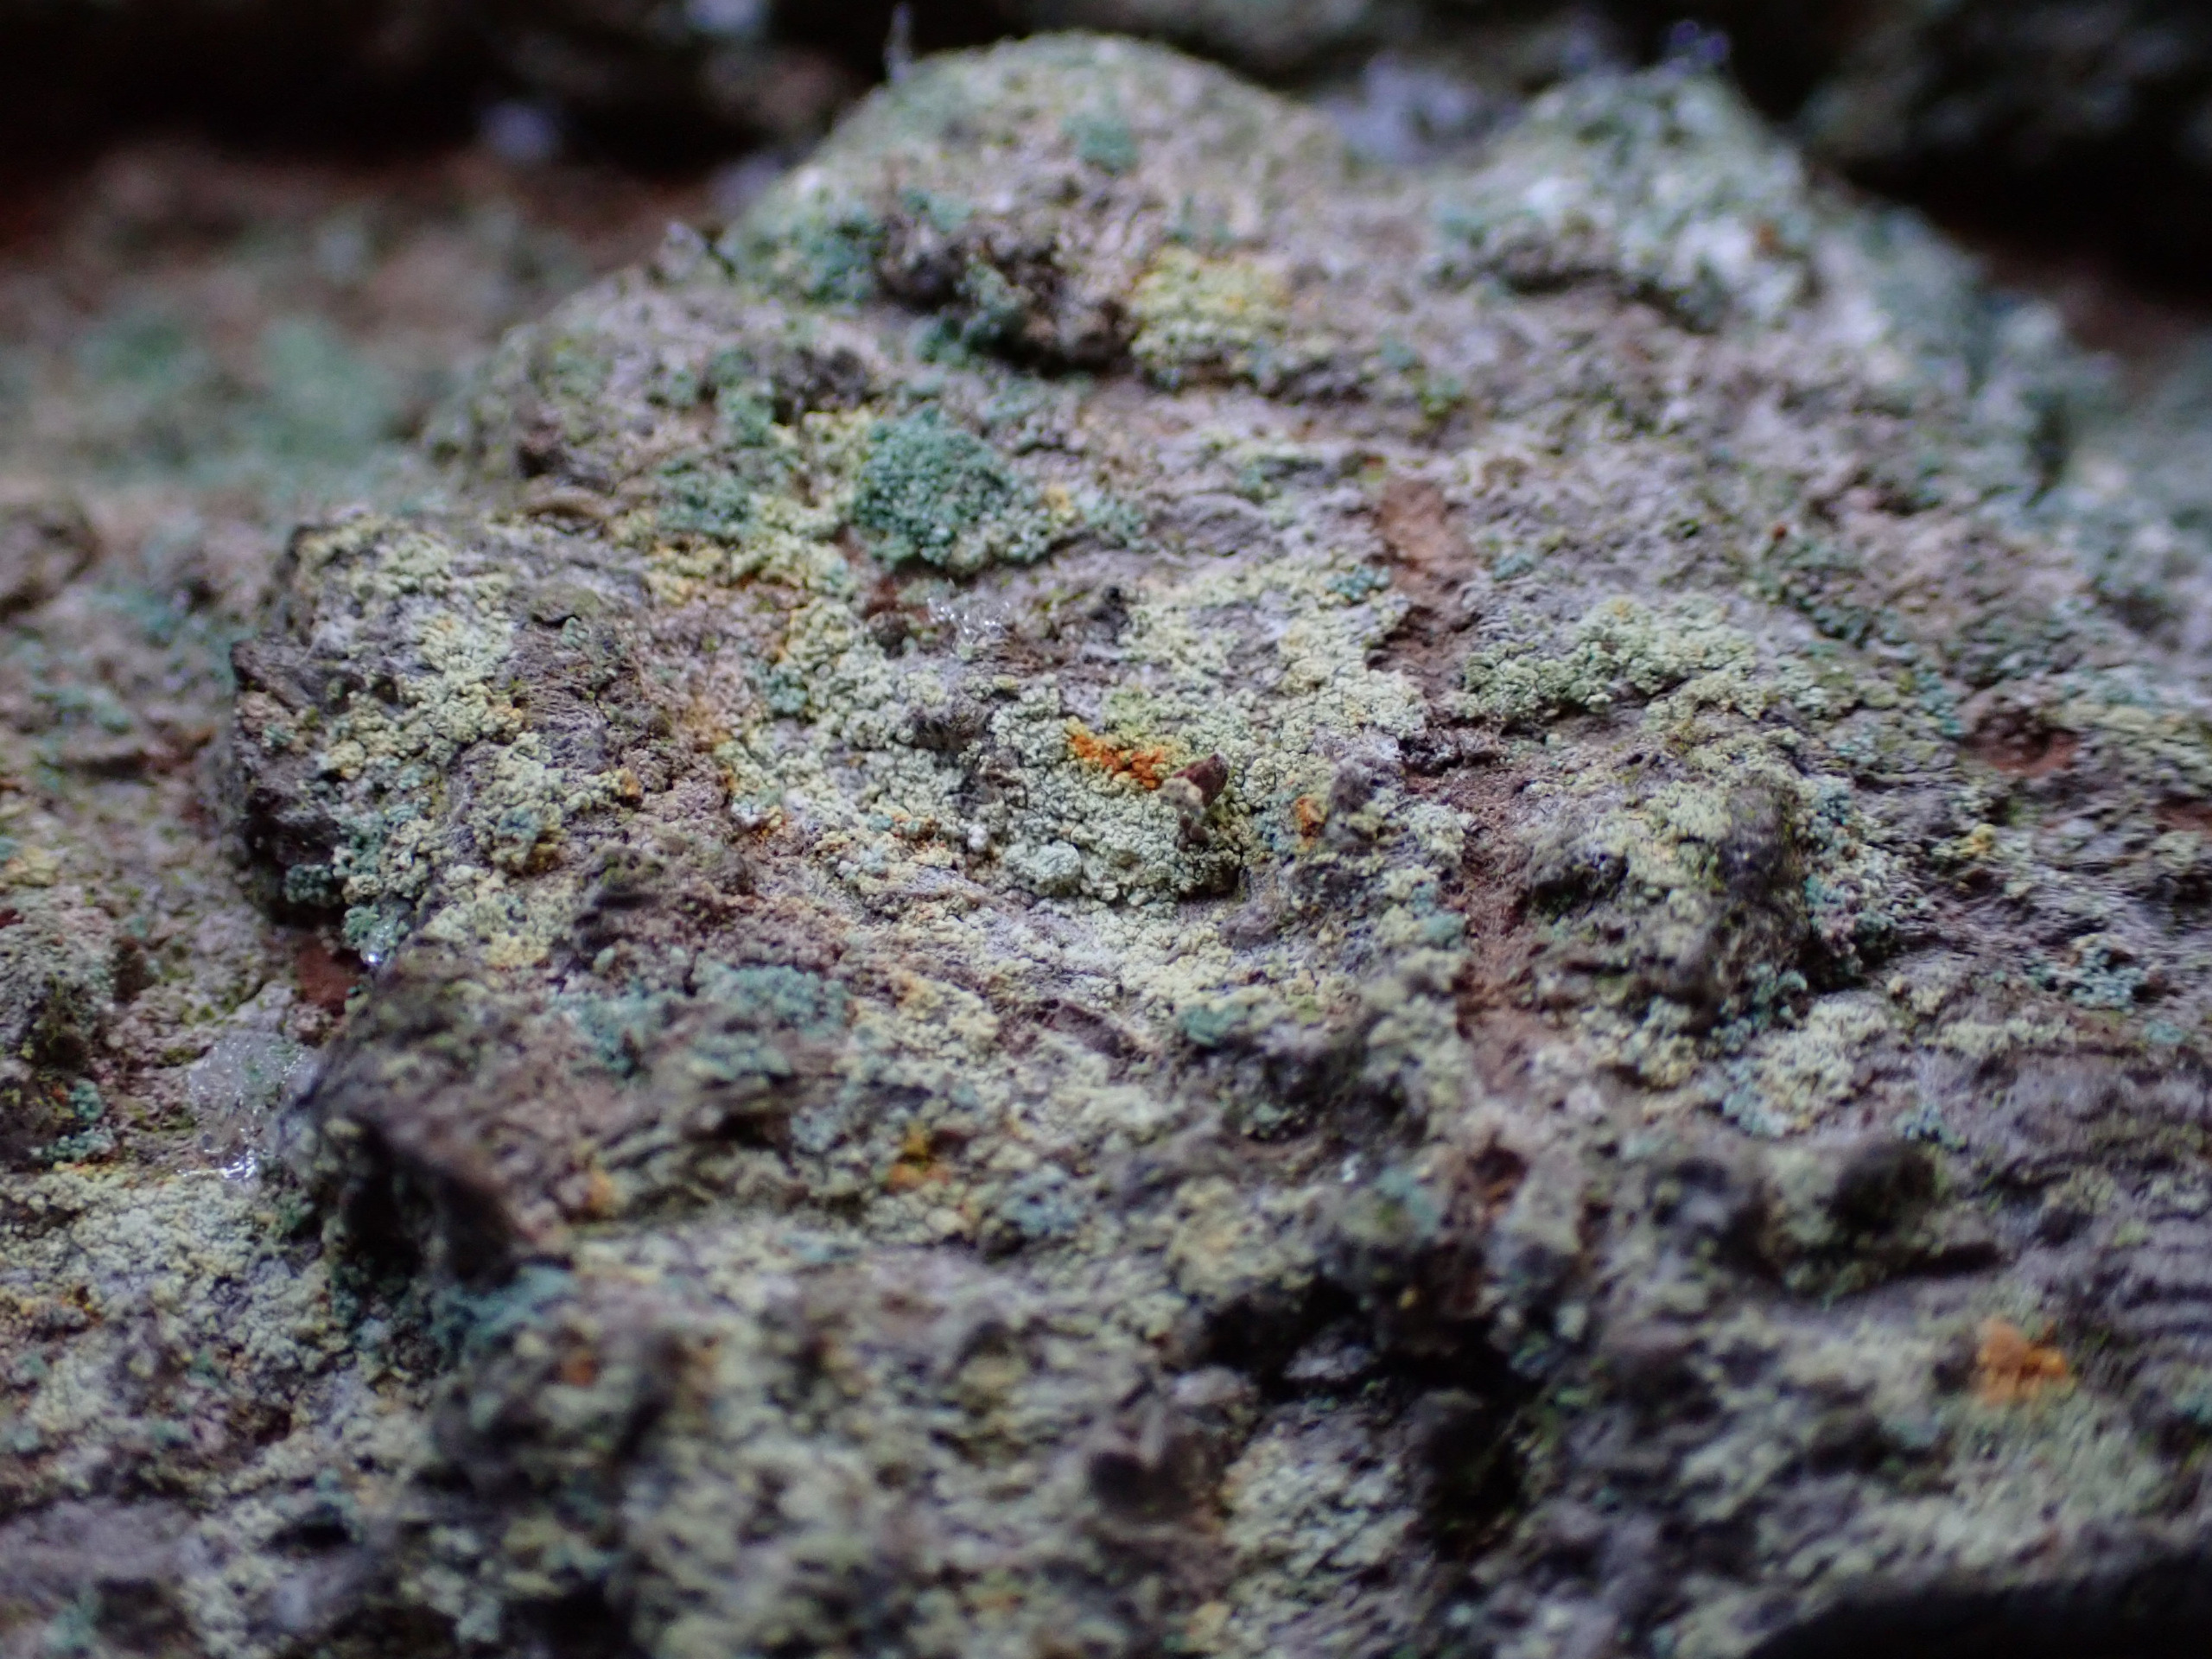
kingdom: Fungi
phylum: Ascomycota
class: Coniocybomycetes
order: Coniocybales
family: Coniocybaceae
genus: Chaenotheca
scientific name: Chaenotheca ferruginea
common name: Rustbrun knappenålslav
